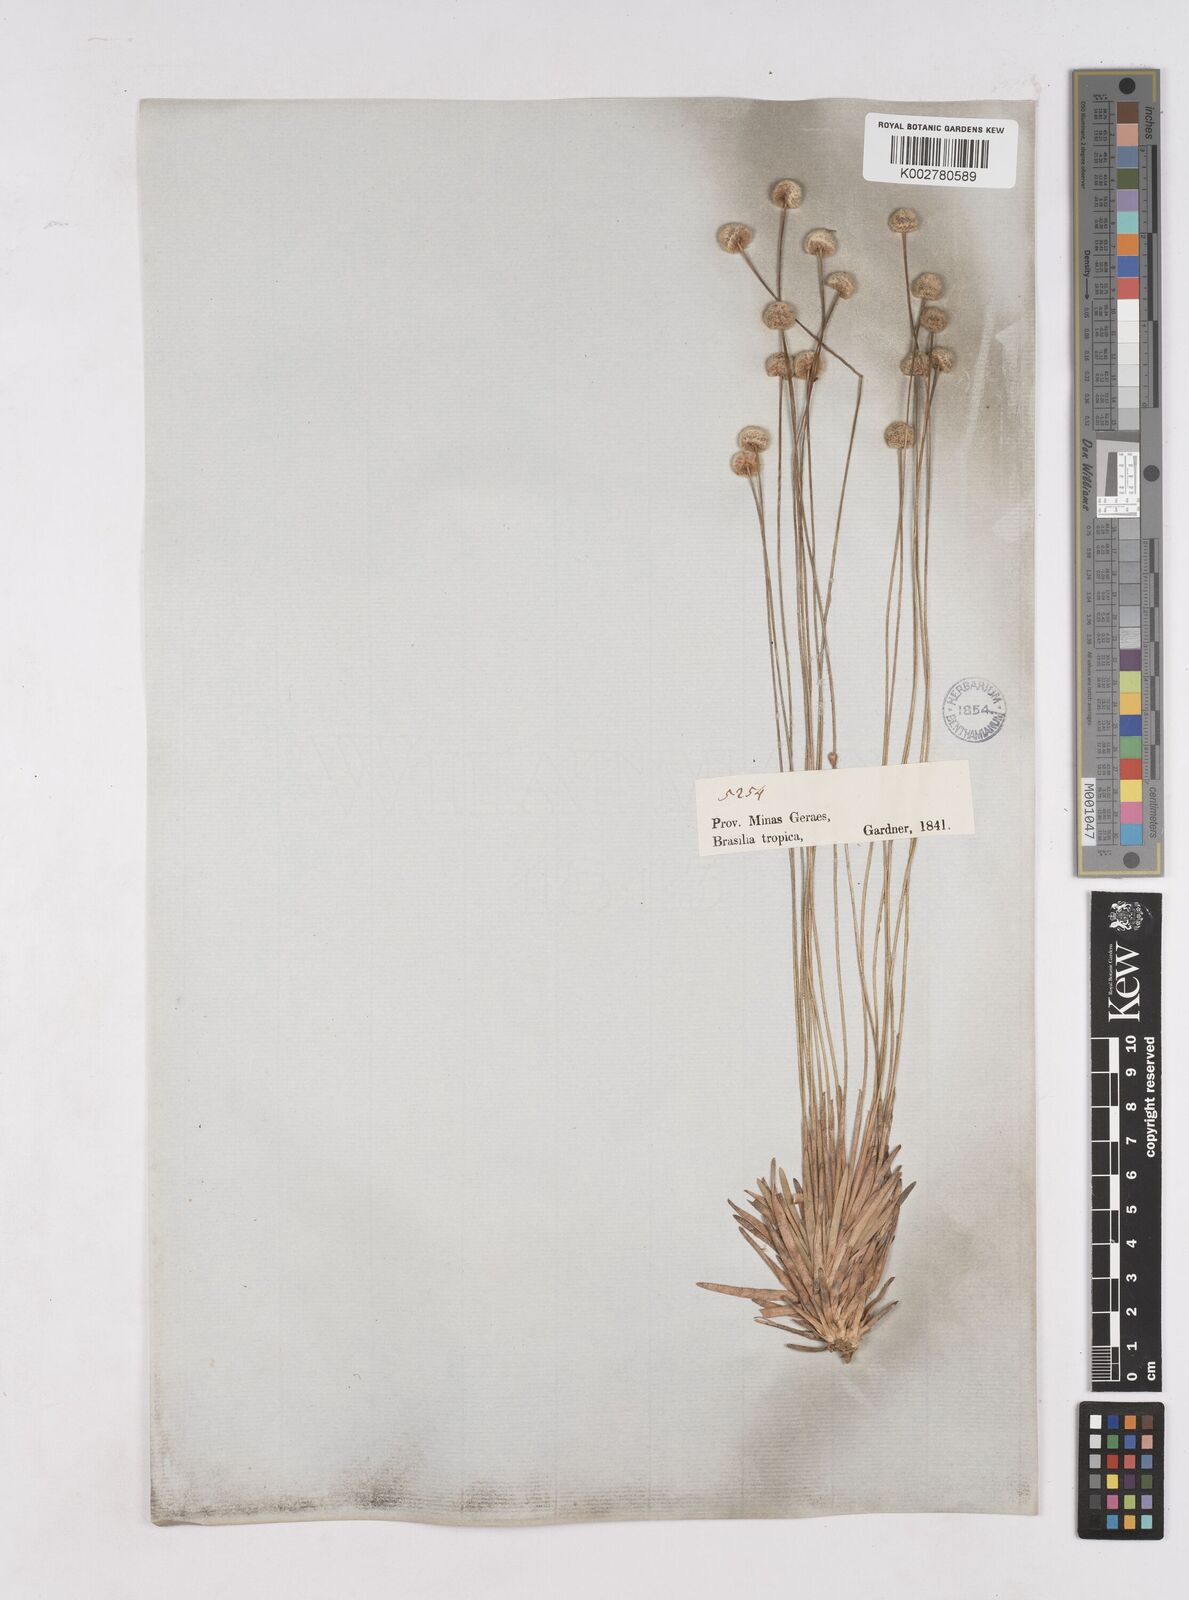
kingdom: Plantae
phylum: Tracheophyta
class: Liliopsida
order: Poales
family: Eriocaulaceae
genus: Paepalanthus
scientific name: Paepalanthus
